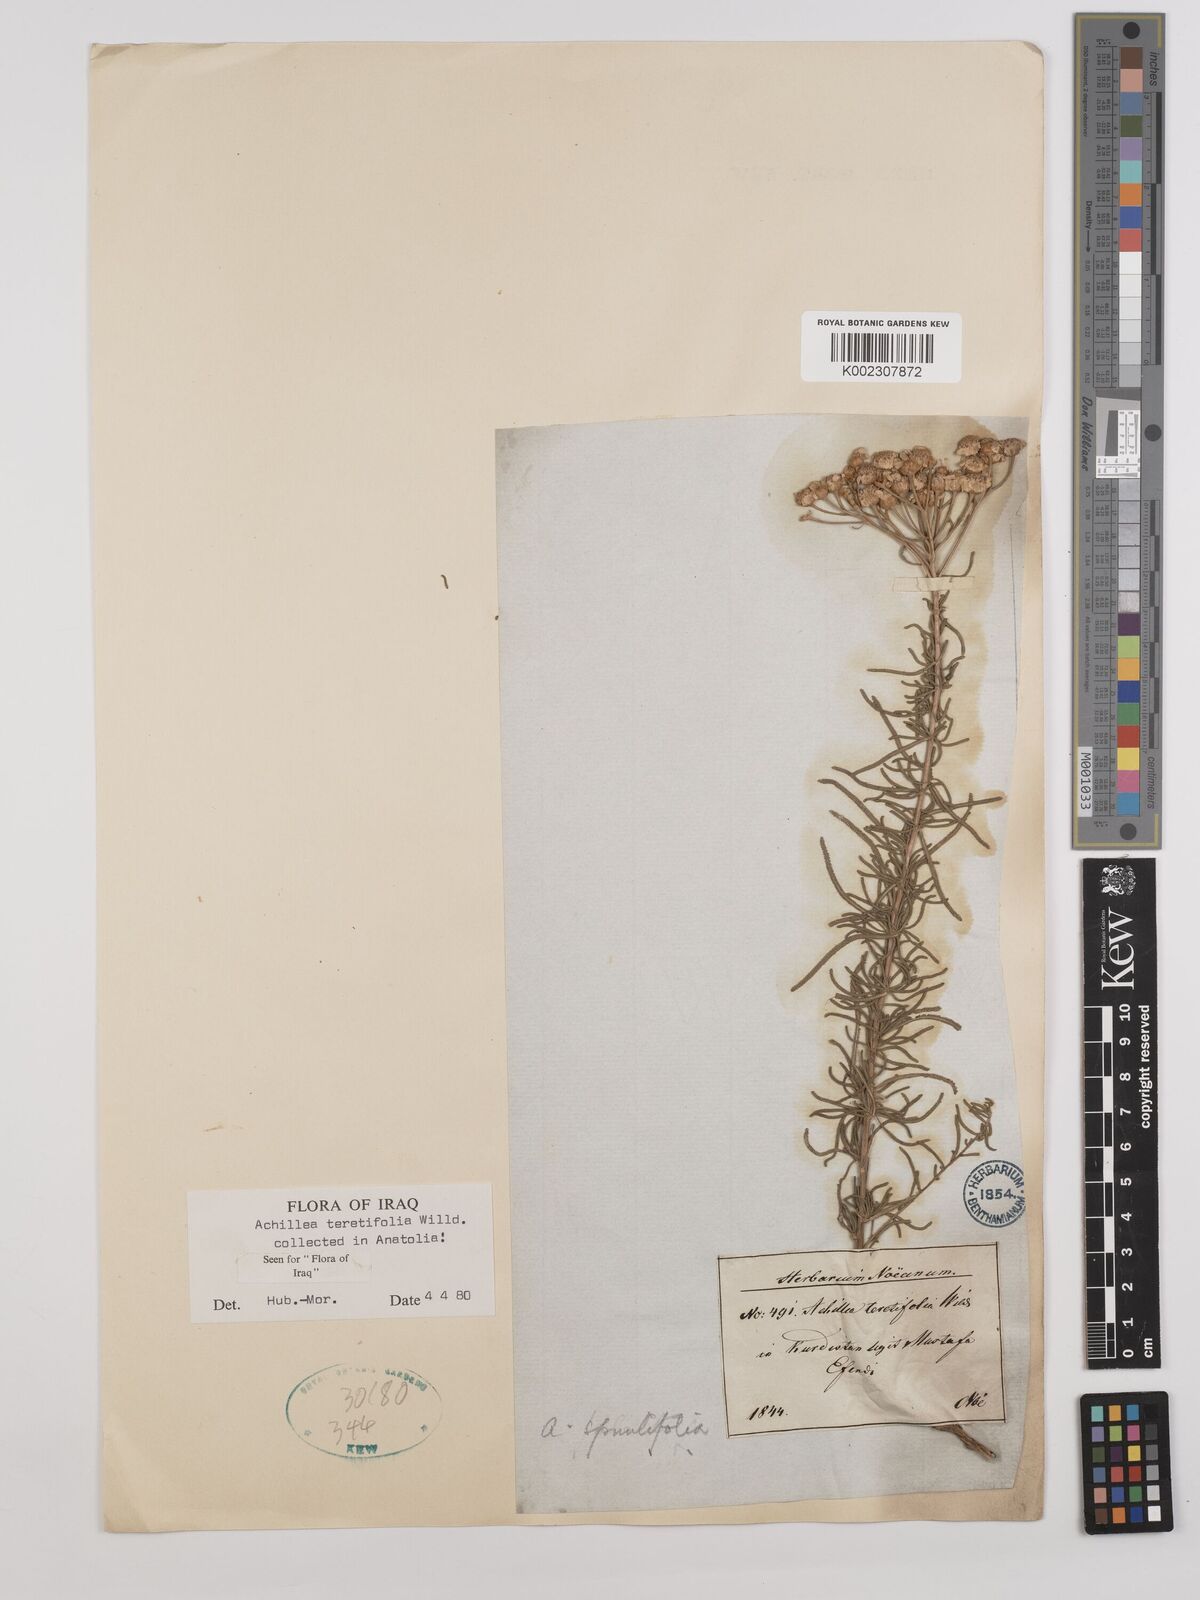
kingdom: Plantae
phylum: Tracheophyta
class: Magnoliopsida
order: Asterales
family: Asteraceae
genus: Achillea
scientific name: Achillea wilhelmsii
